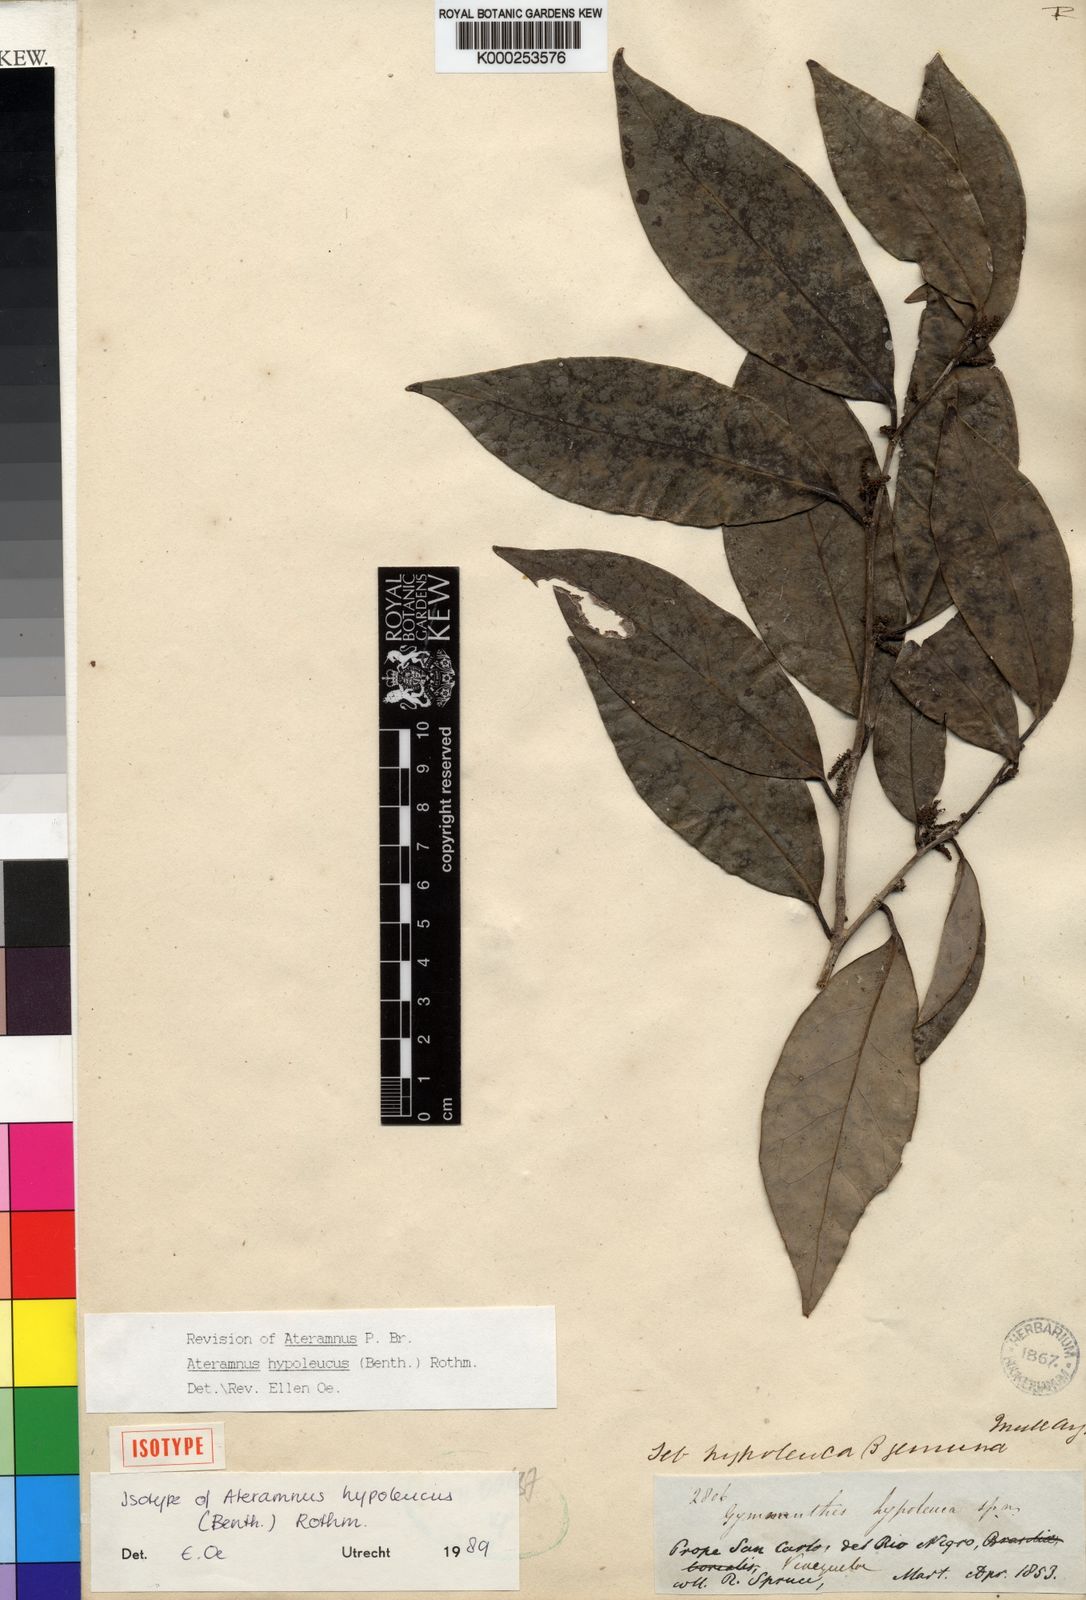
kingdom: Plantae
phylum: Tracheophyta
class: Magnoliopsida
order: Malpighiales
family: Euphorbiaceae
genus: Gymnanthes
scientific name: Gymnanthes hypoleuca
